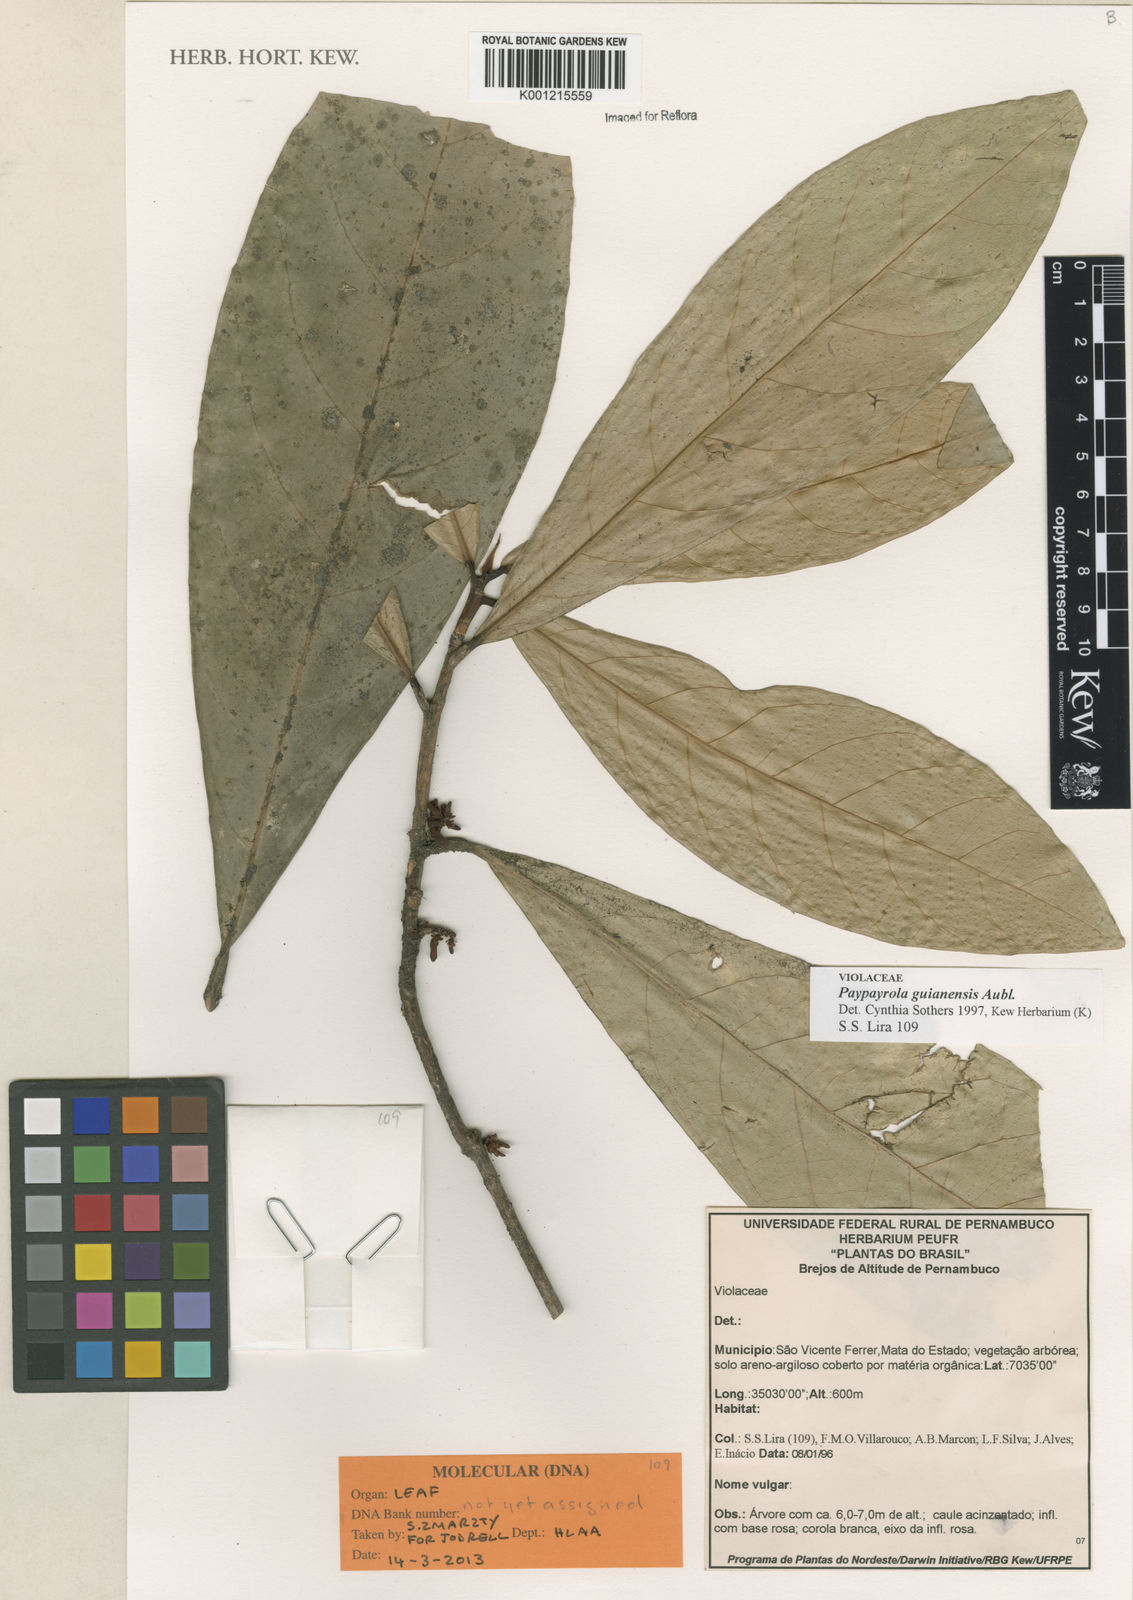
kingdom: Plantae
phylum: Tracheophyta
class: Magnoliopsida
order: Malpighiales
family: Violaceae
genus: Paypayrola
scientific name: Paypayrola guianensis
